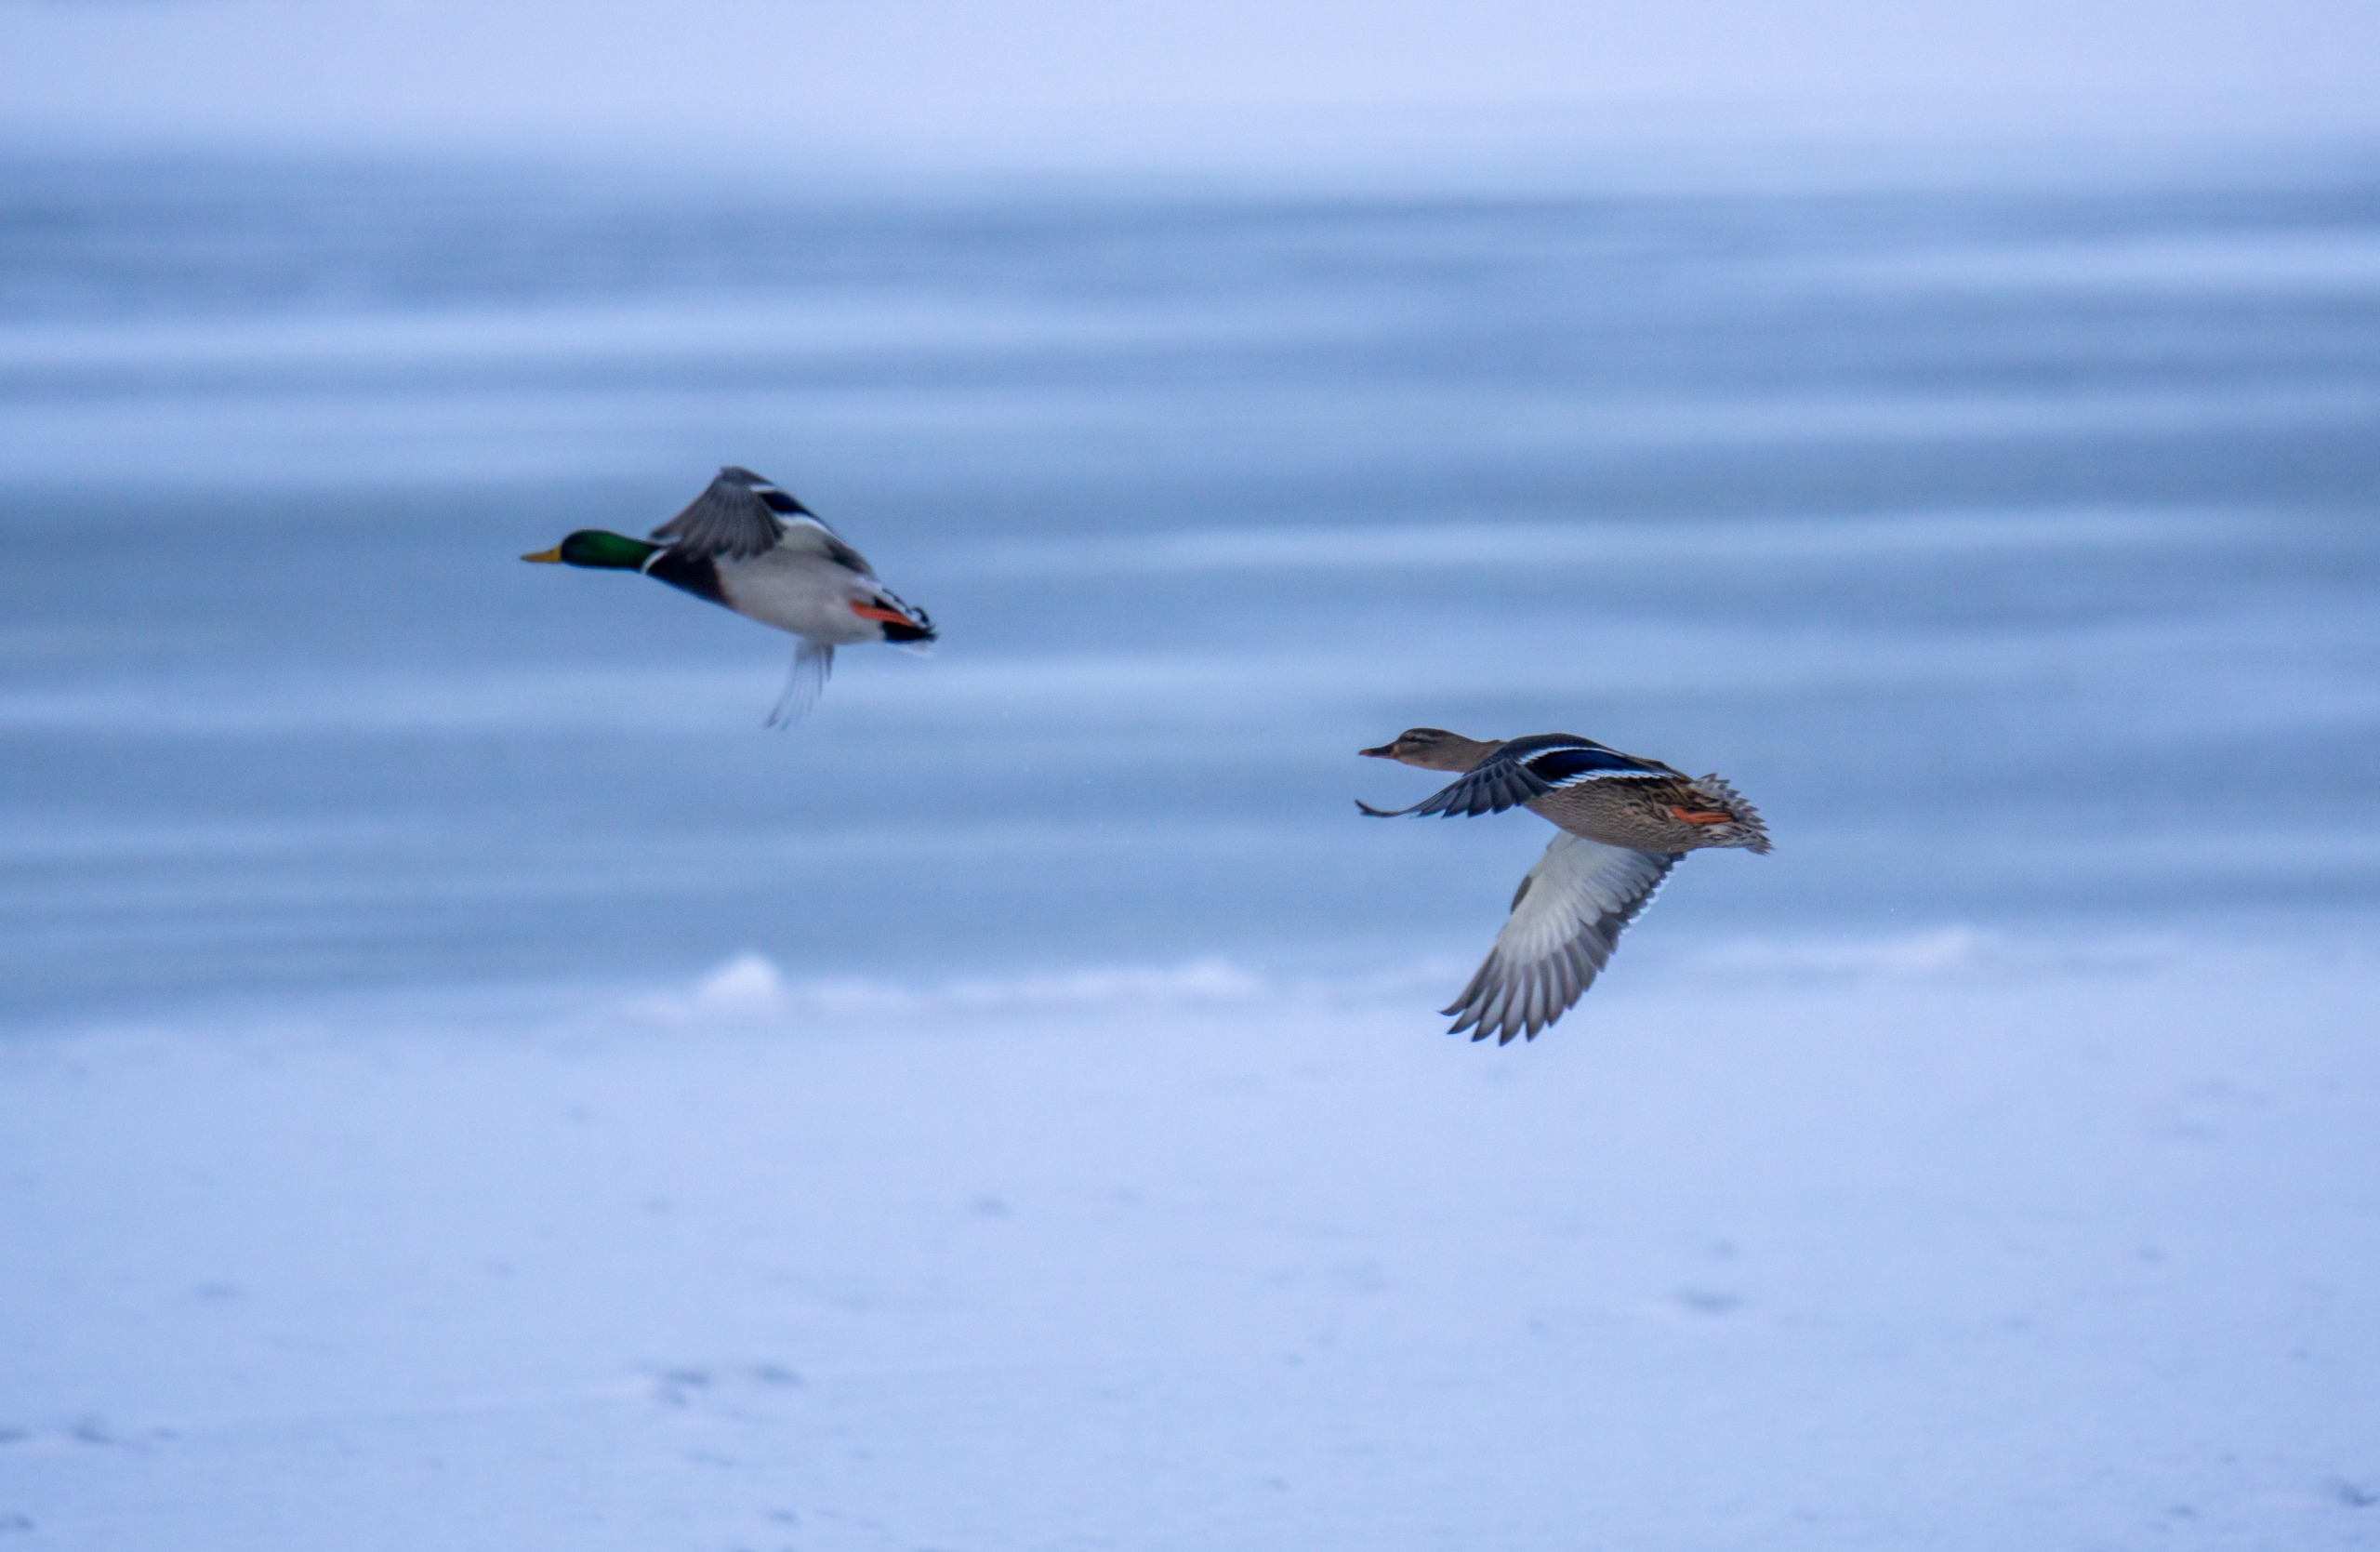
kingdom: Animalia
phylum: Chordata
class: Aves
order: Anseriformes
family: Anatidae
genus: Anas
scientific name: Anas platyrhynchos
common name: Gråand
